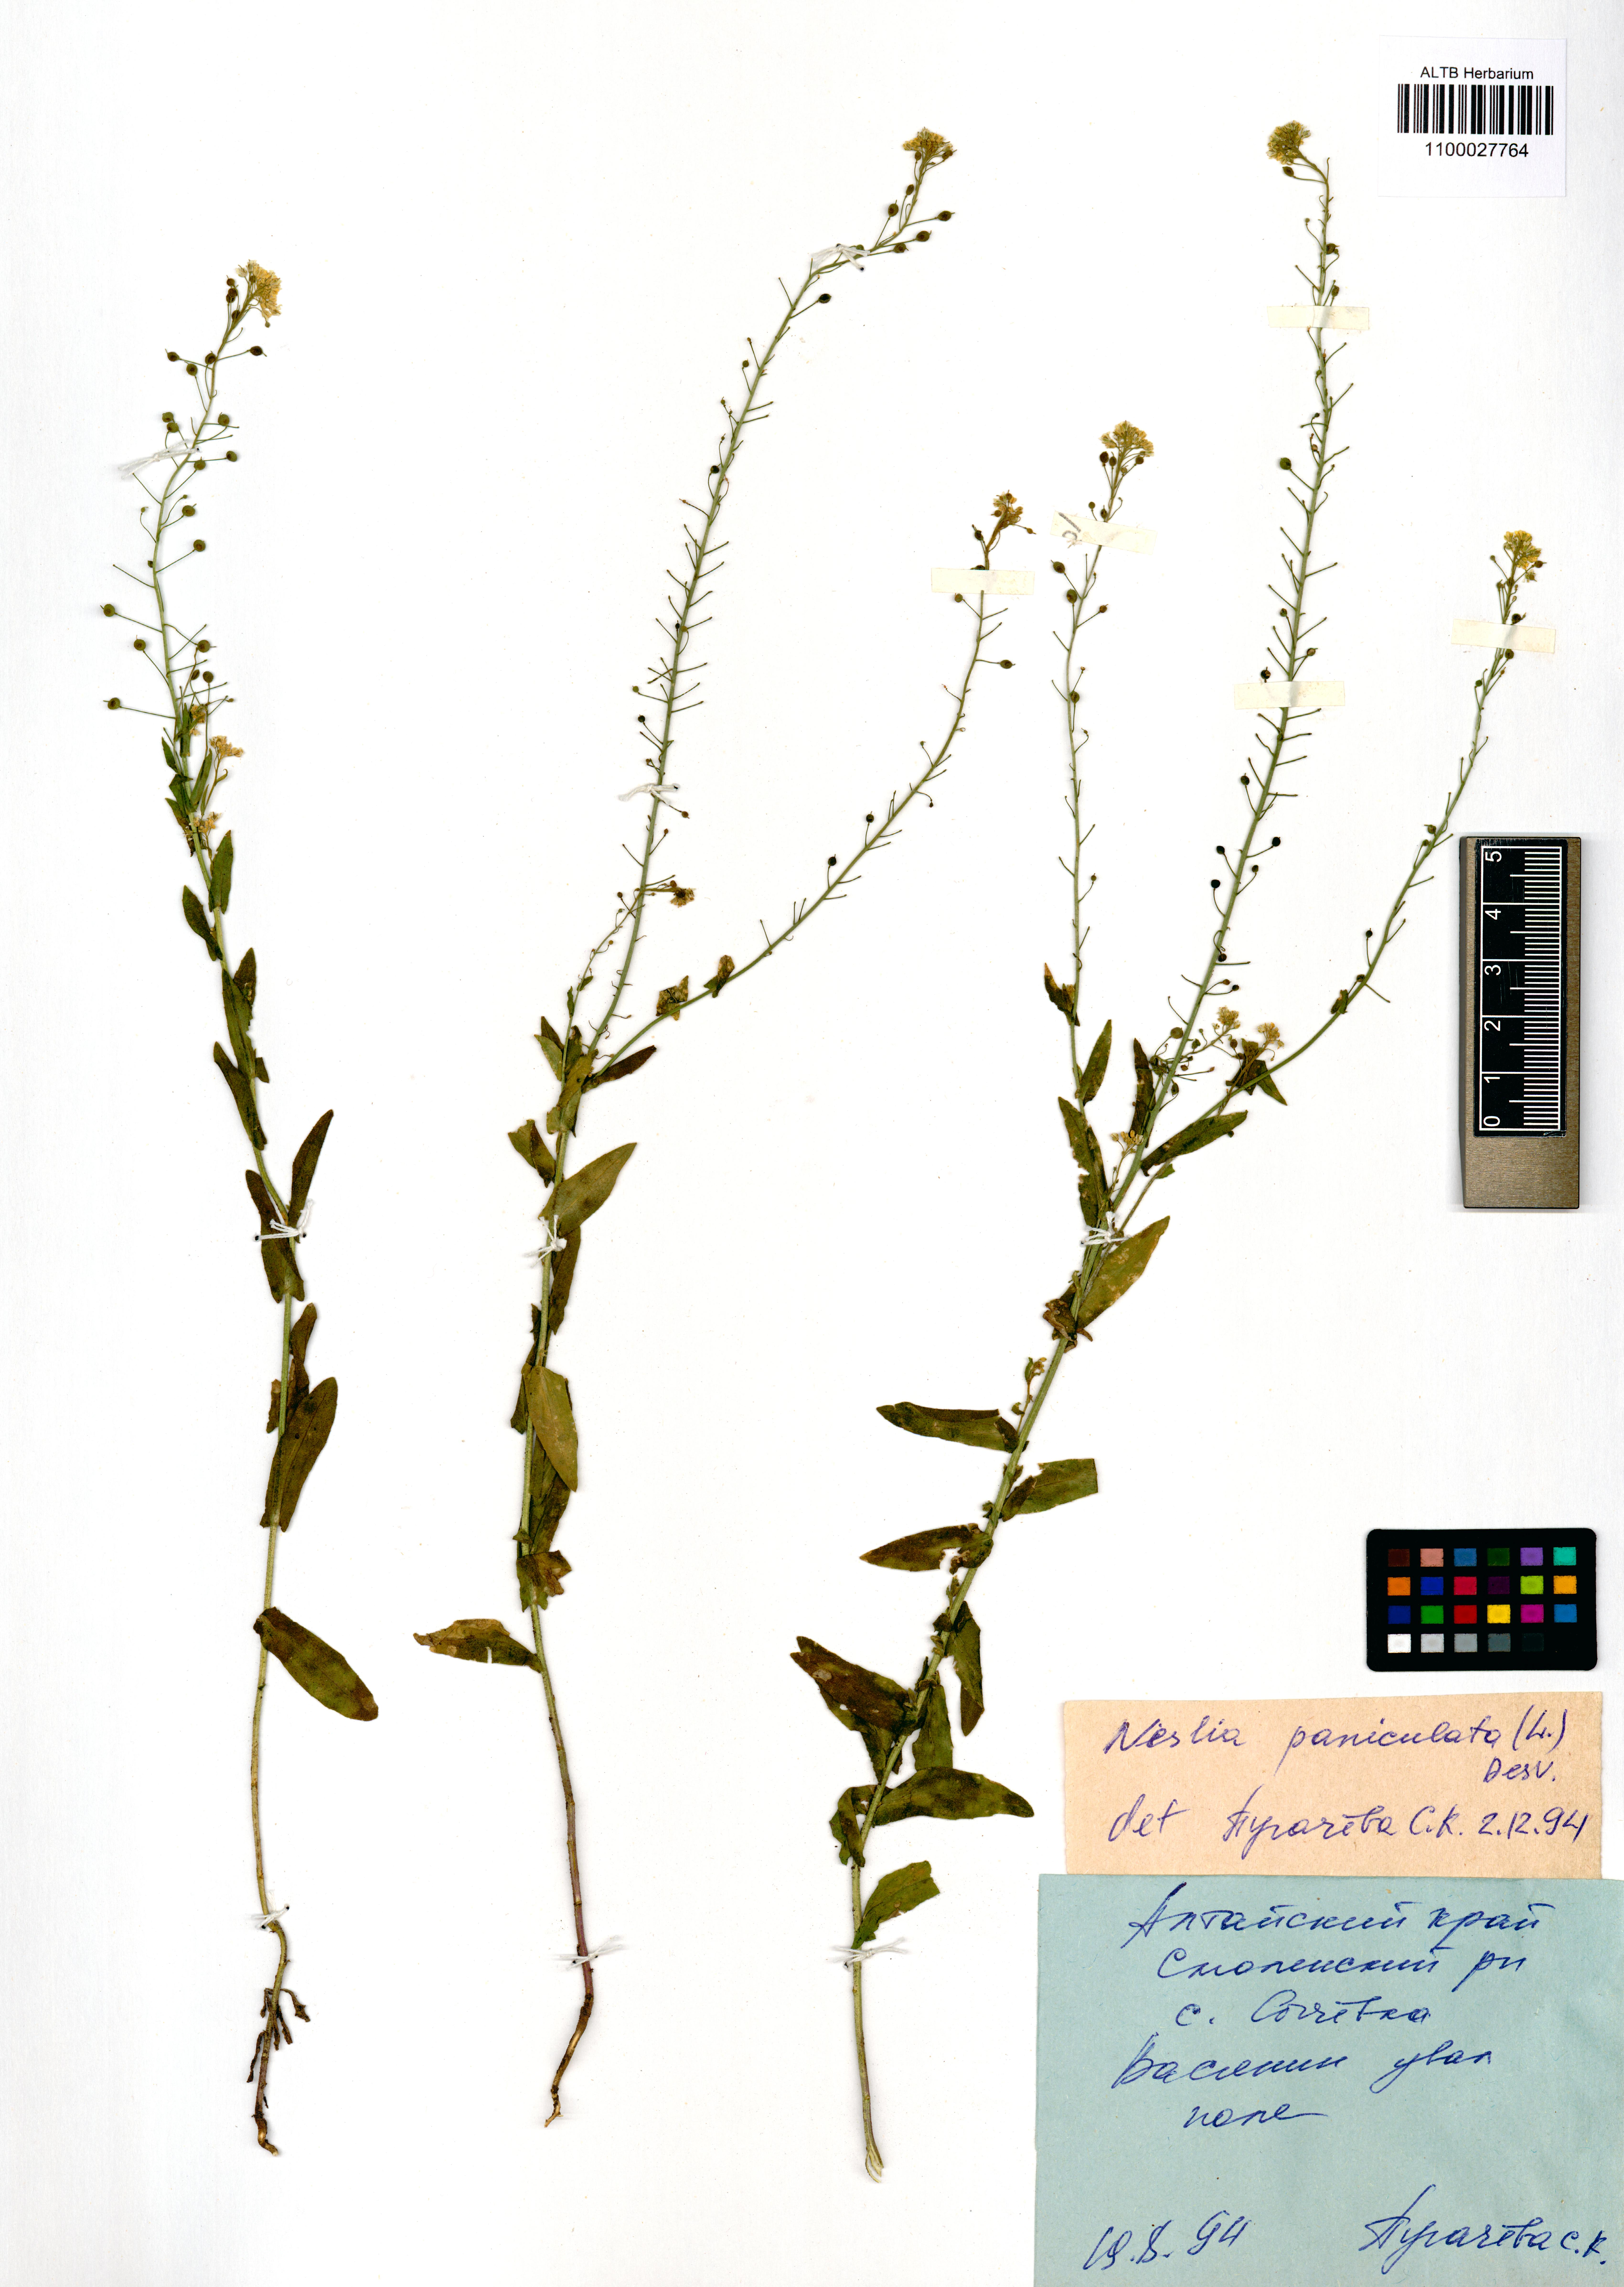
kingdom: Plantae
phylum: Tracheophyta
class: Magnoliopsida
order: Brassicales
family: Brassicaceae
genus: Neslia
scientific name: Neslia paniculata
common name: Ball mustard
